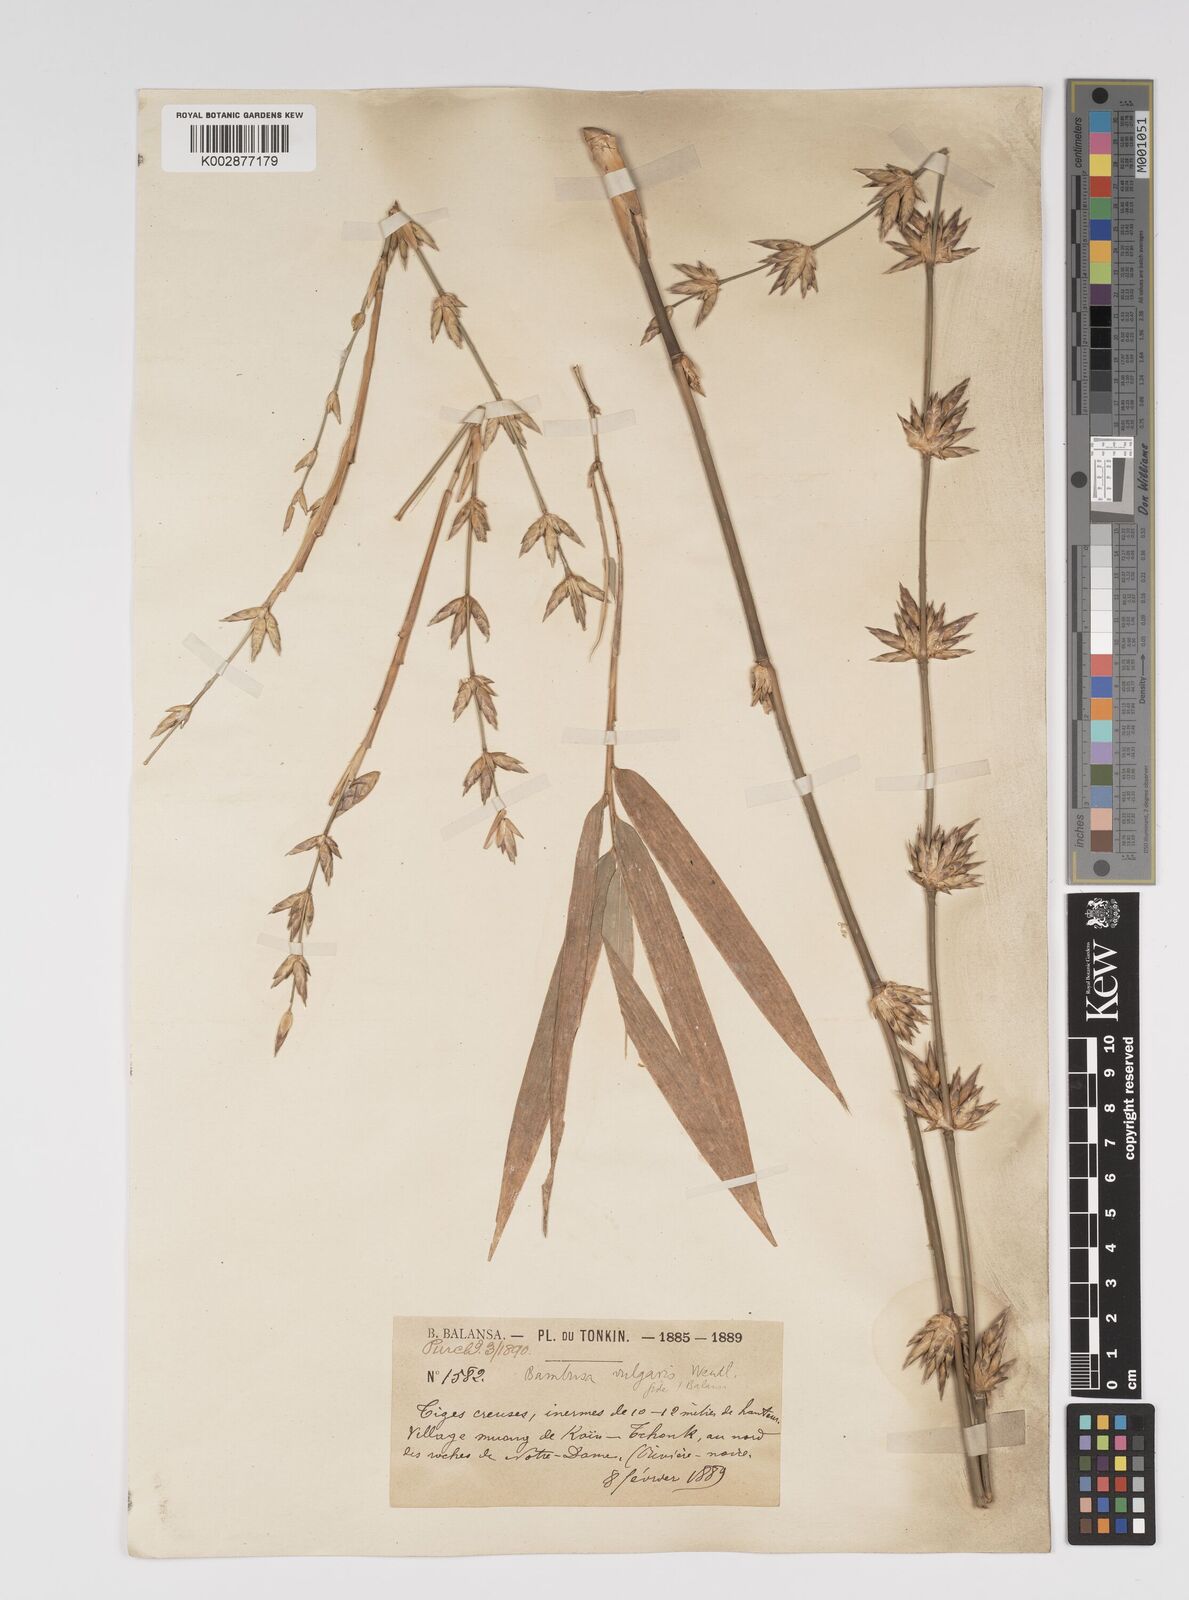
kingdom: Plantae
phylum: Tracheophyta
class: Liliopsida
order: Poales
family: Poaceae
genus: Bambusa
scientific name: Bambusa balcooa
